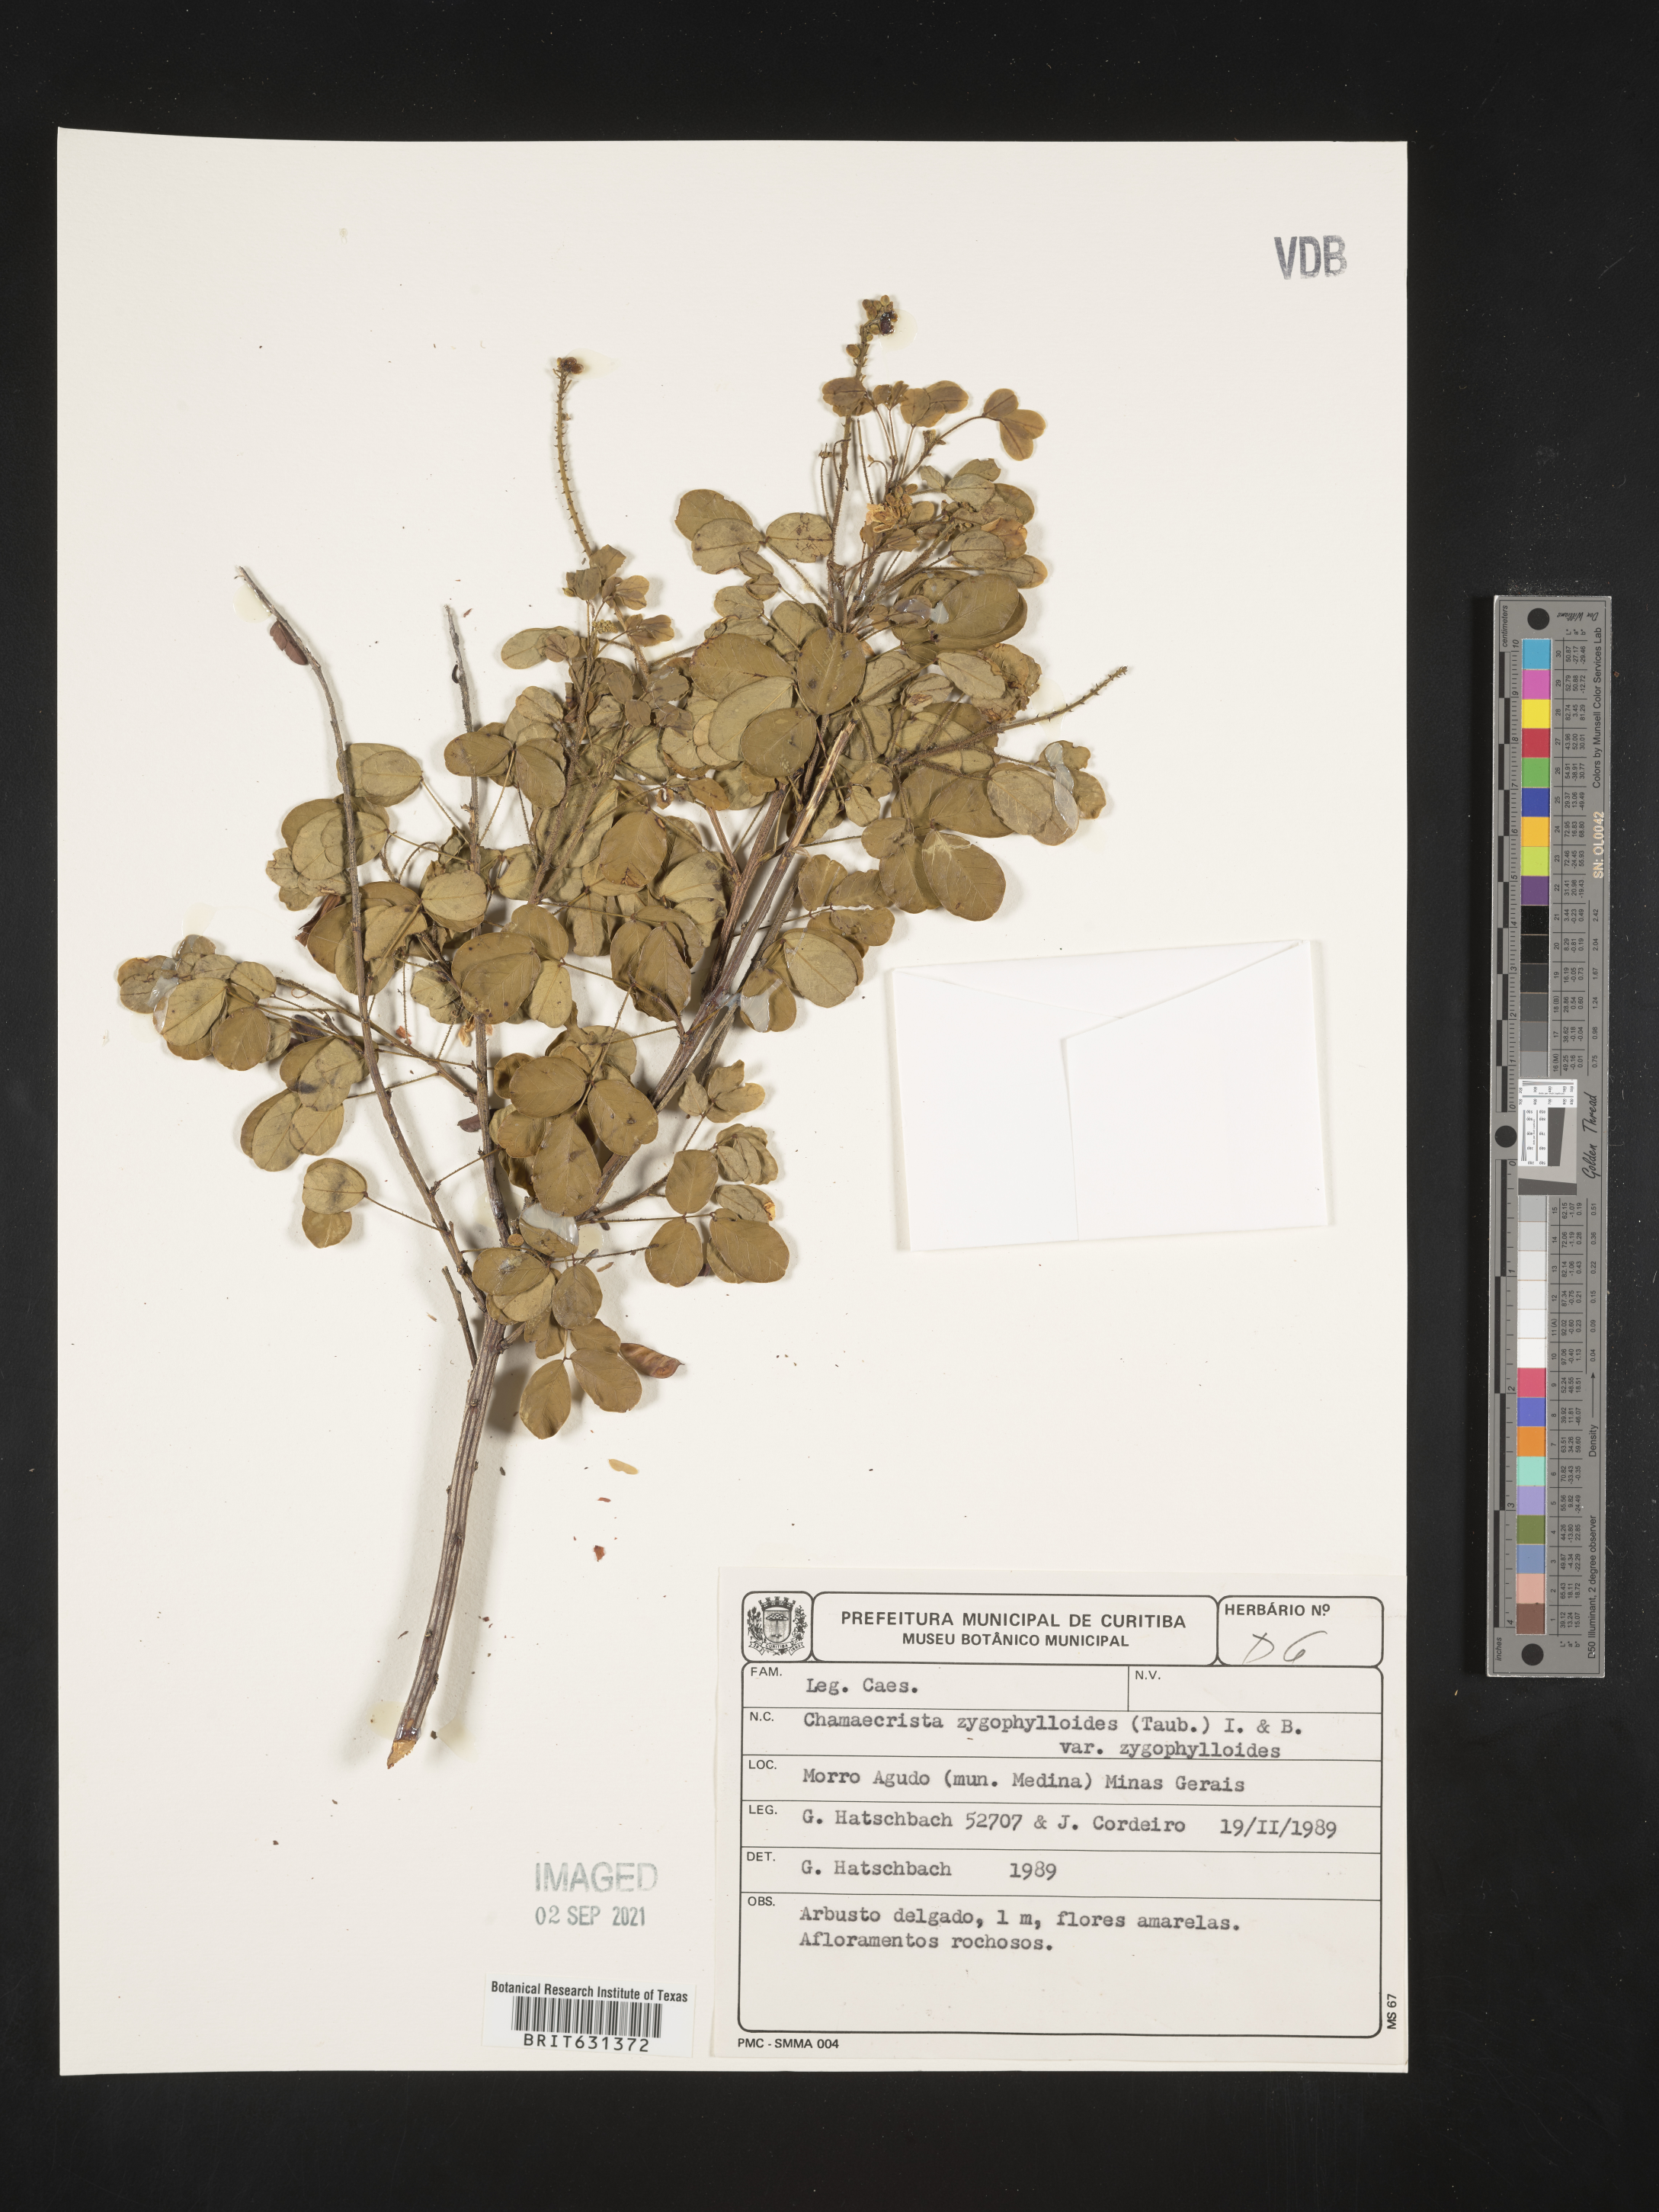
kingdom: Plantae
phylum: Tracheophyta
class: Magnoliopsida
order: Fabales
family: Fabaceae
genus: Chamaecrista
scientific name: Chamaecrista zygophylloides
